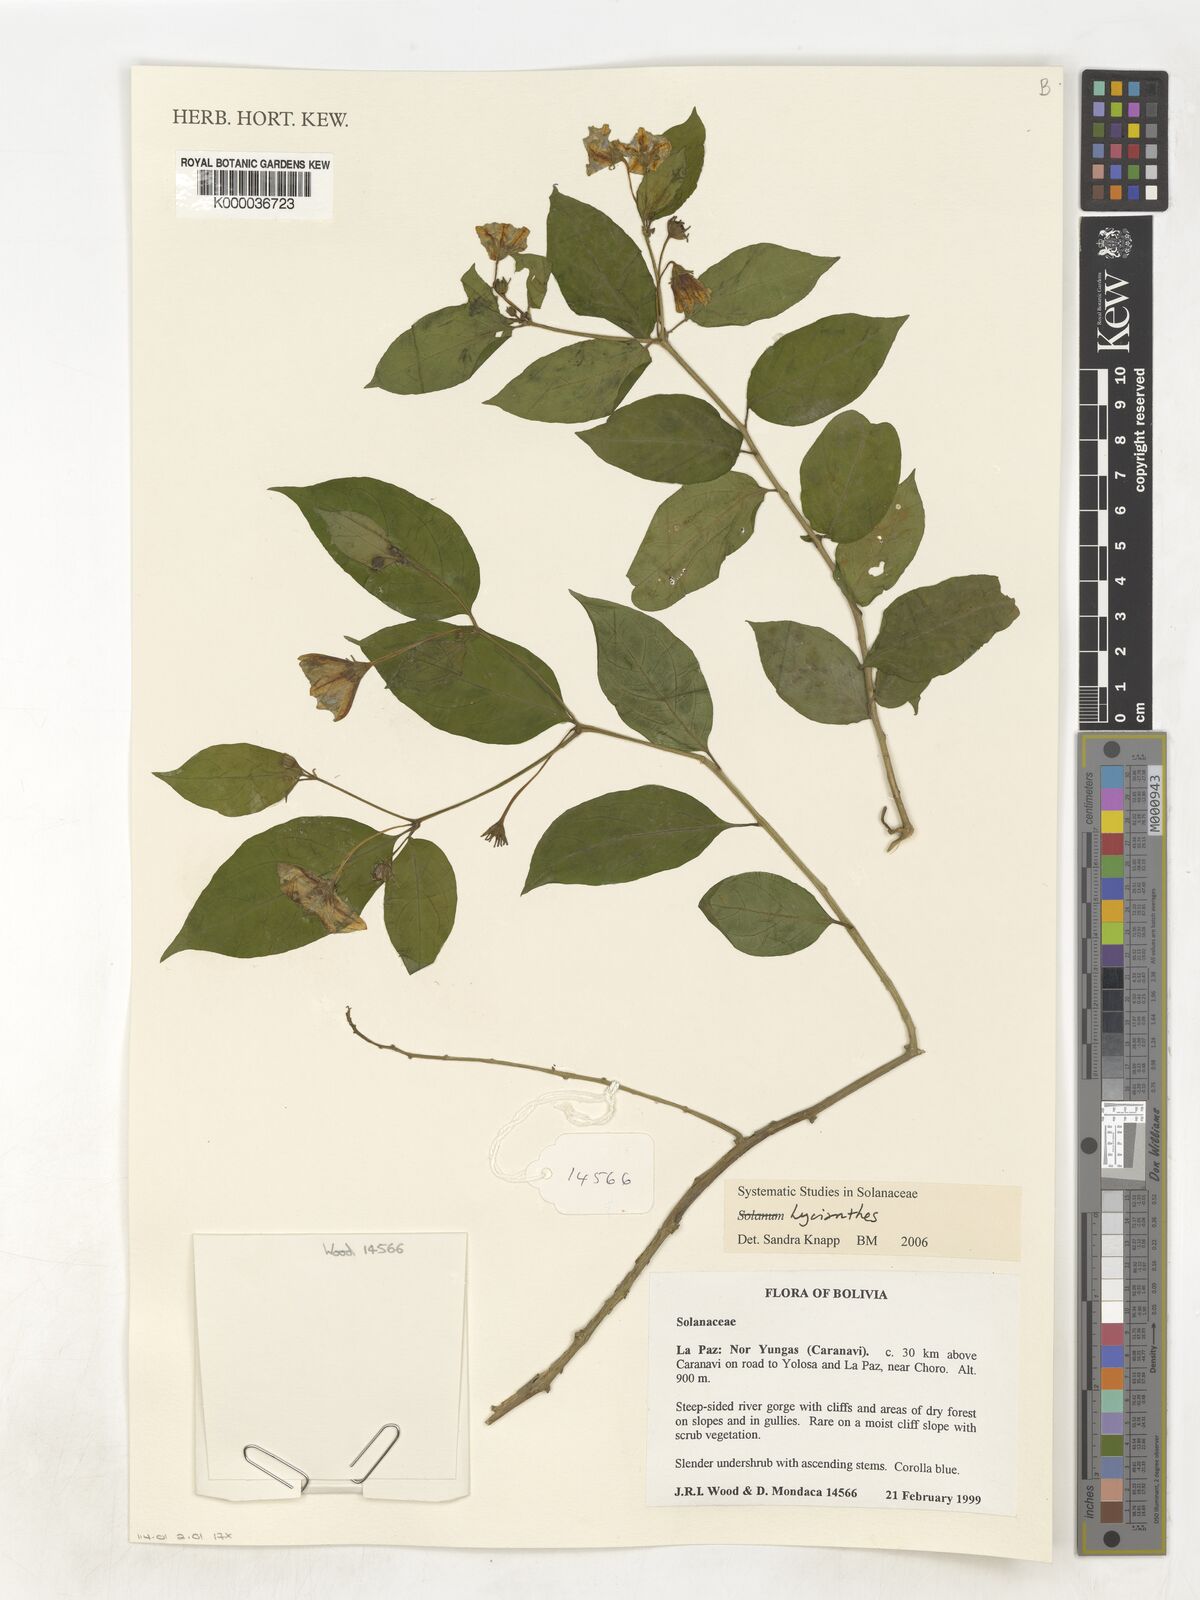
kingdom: Plantae
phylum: Tracheophyta
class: Magnoliopsida
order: Solanales
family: Solanaceae
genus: Lycianthes
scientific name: Lycianthes
